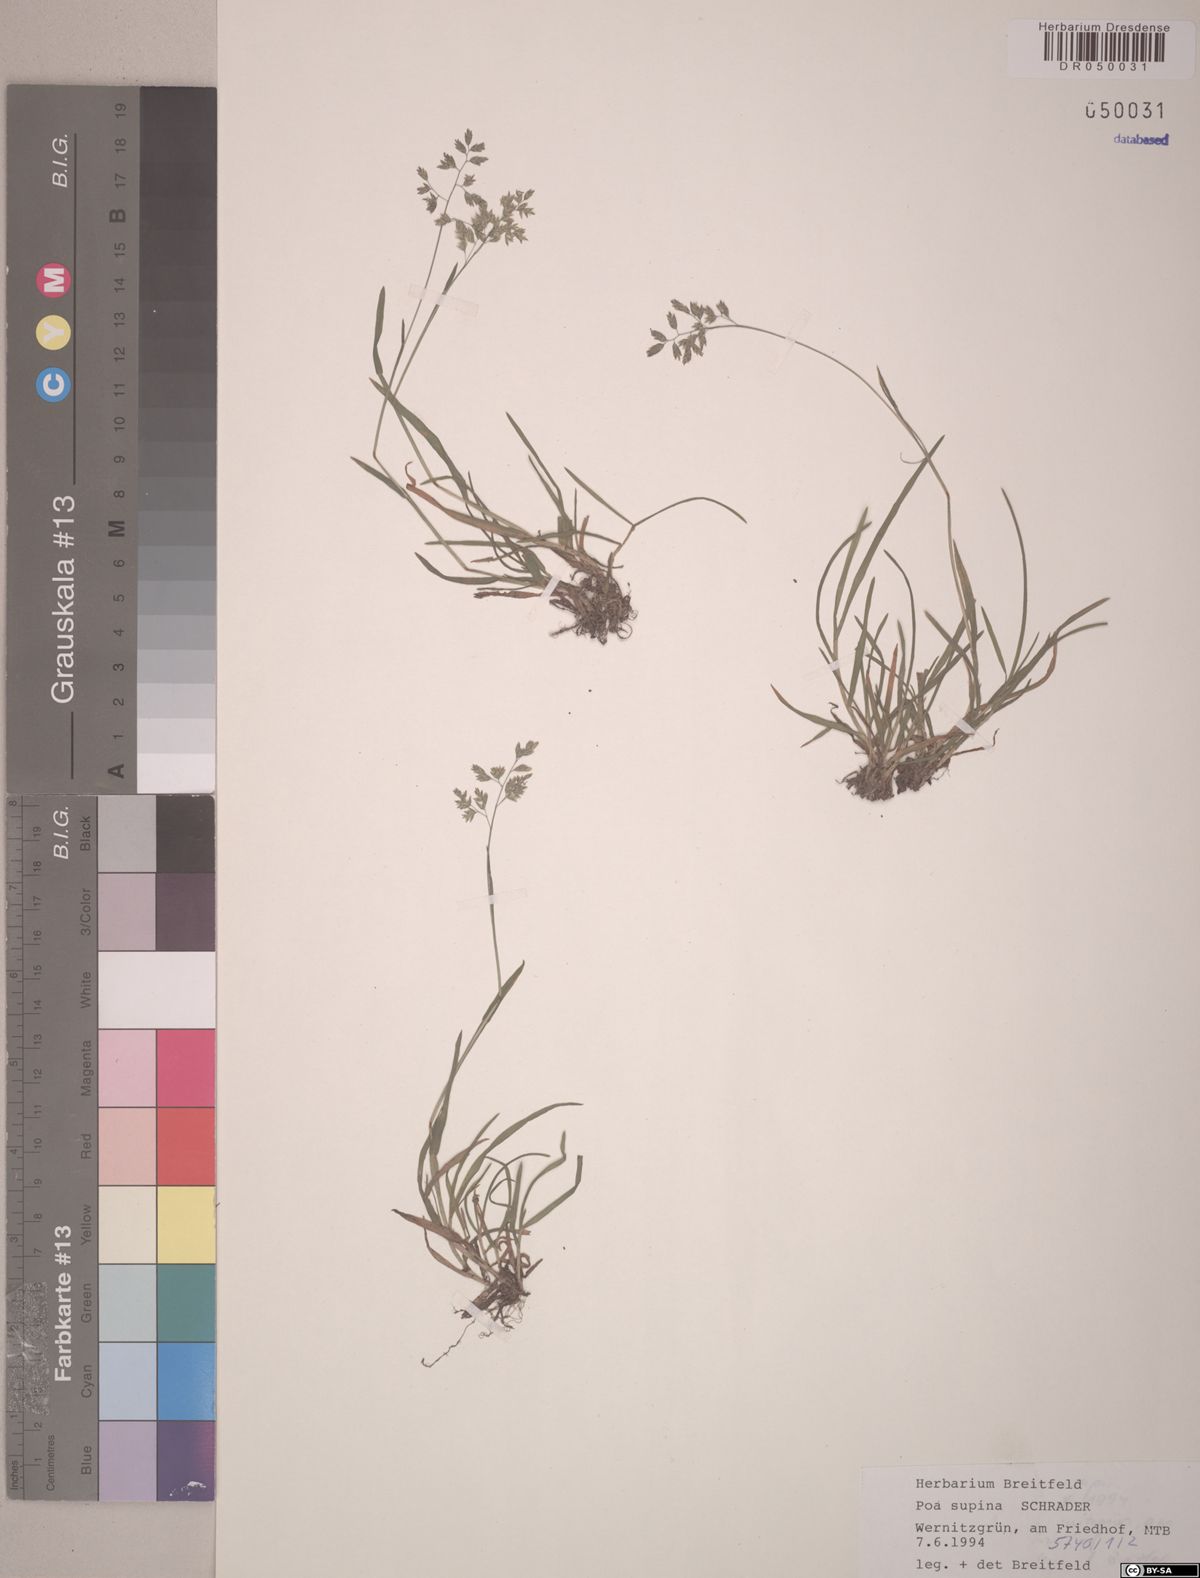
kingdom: Plantae
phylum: Tracheophyta
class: Liliopsida
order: Poales
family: Poaceae
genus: Poa
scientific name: Poa supina
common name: Supina bluegrass
